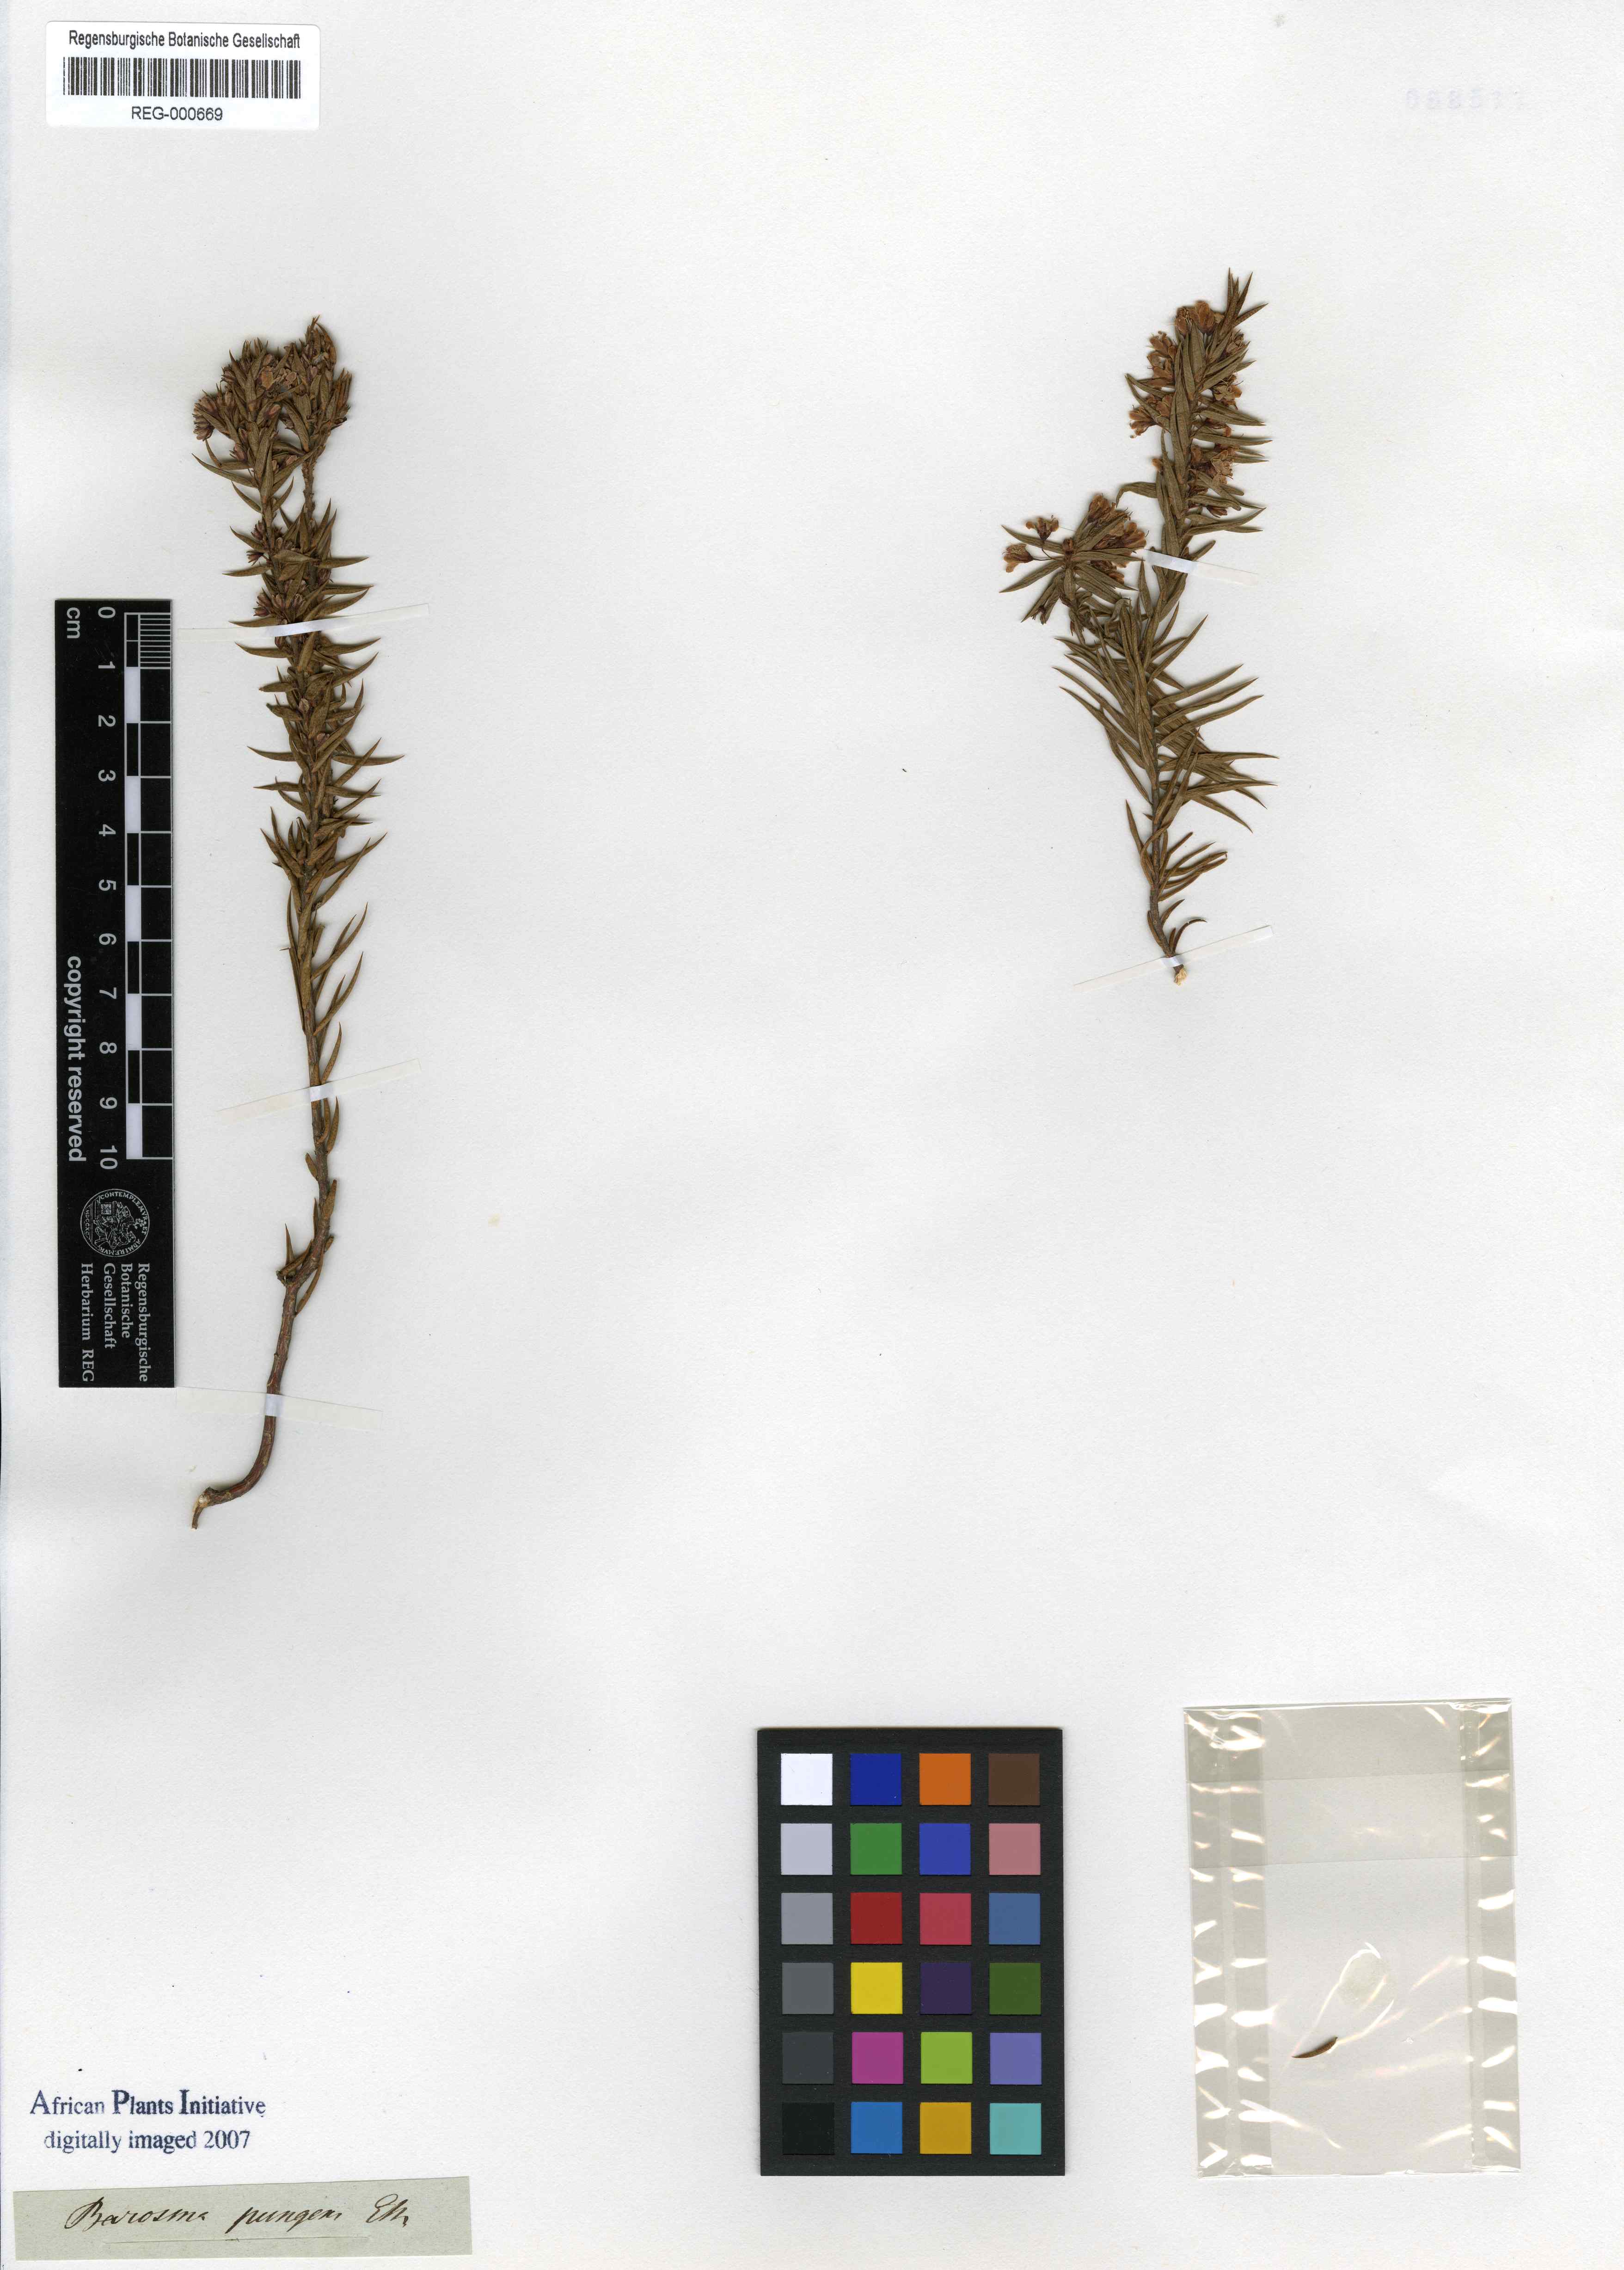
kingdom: Plantae
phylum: Tracheophyta
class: Magnoliopsida
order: Sapindales
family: Rutaceae
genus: Agathosma
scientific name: Agathosma pungens
